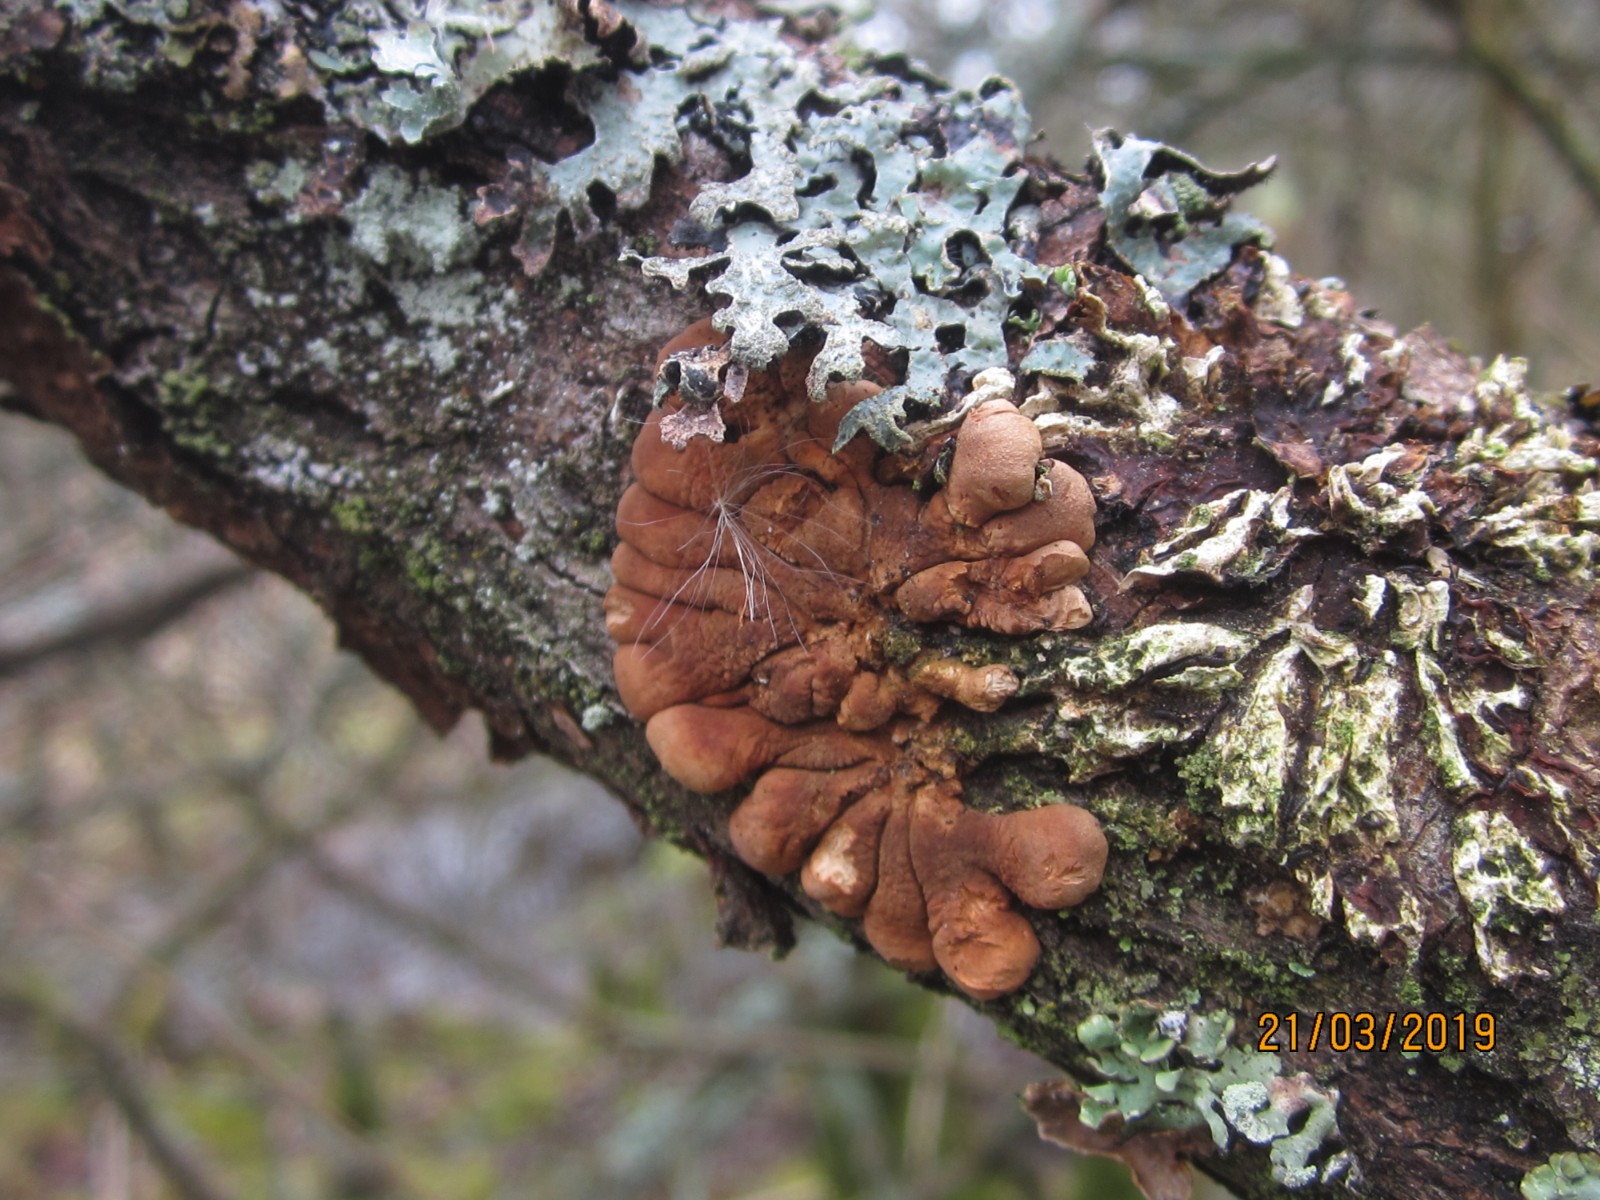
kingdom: Fungi
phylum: Basidiomycota
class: Agaricomycetes
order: Hymenochaetales
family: Hymenochaetaceae
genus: Hydnoporia
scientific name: Hydnoporia tabacina
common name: tobaksbrun ruslædersvamp
